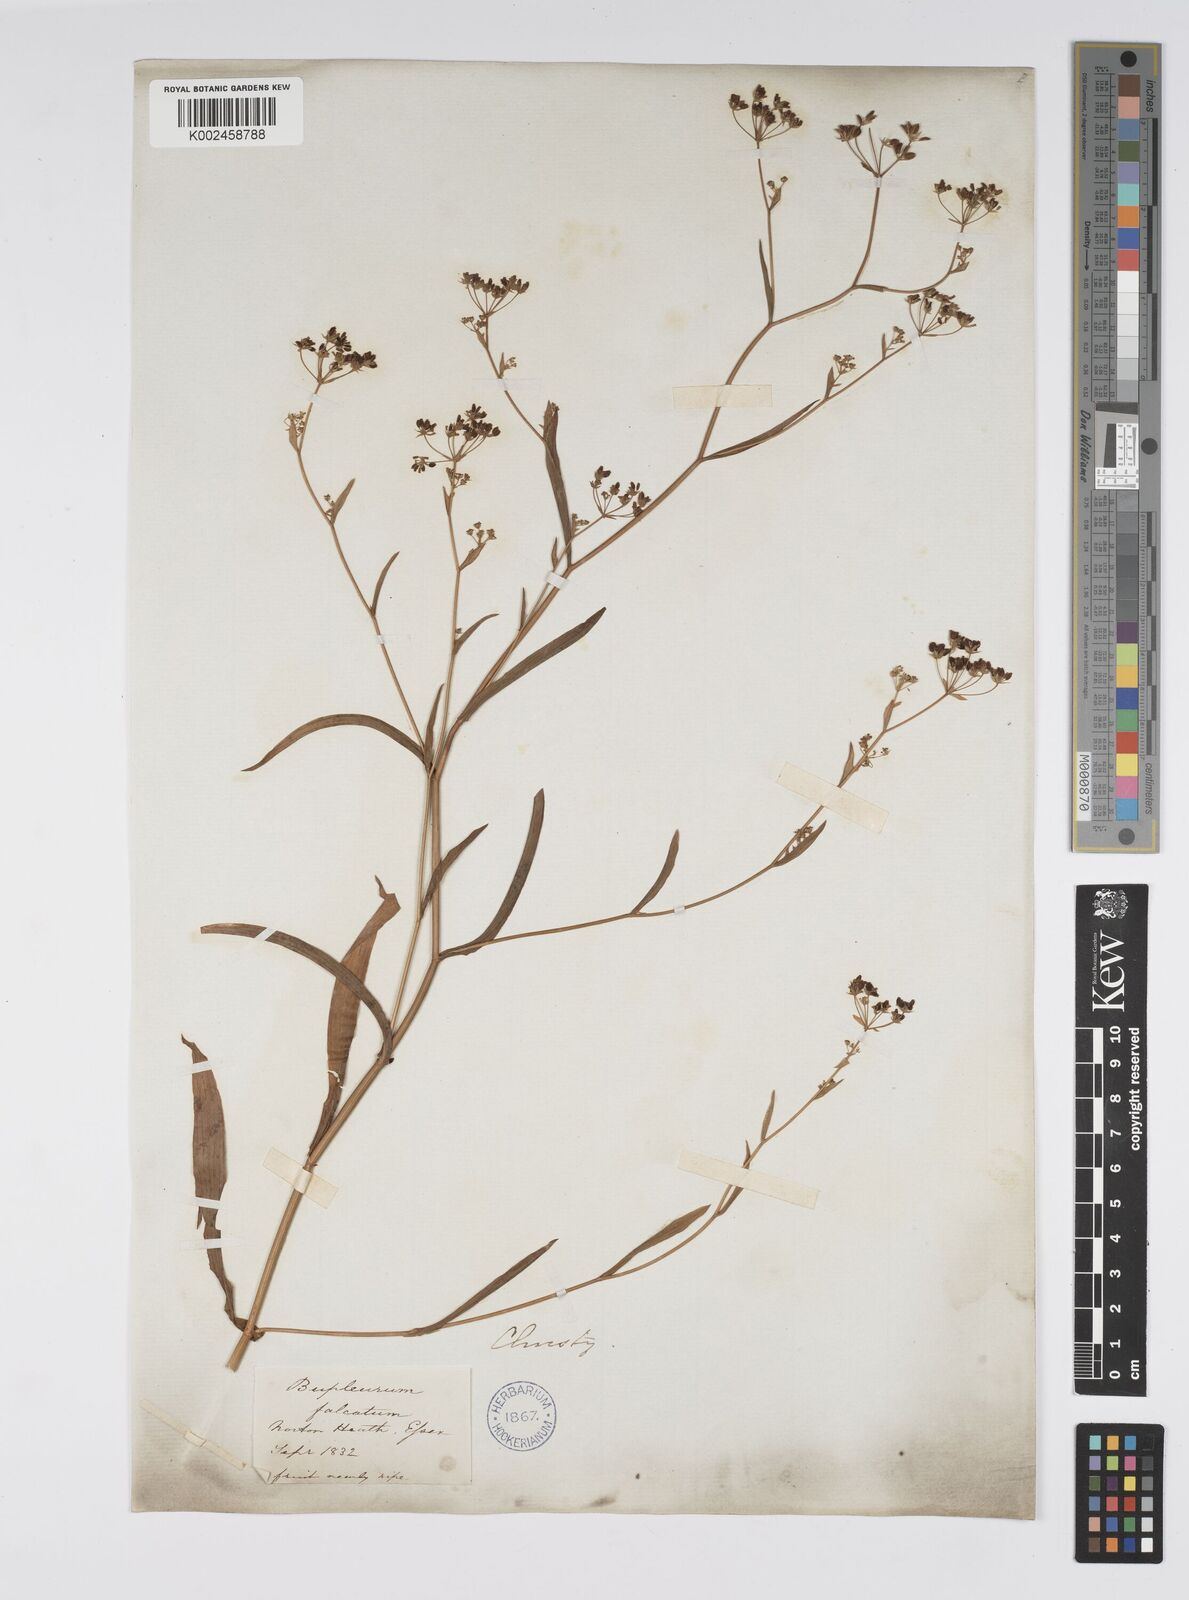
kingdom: Plantae
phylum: Tracheophyta
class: Magnoliopsida
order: Apiales
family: Apiaceae
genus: Bupleurum
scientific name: Bupleurum falcatum
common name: Sickle-leaved hare's-ear
